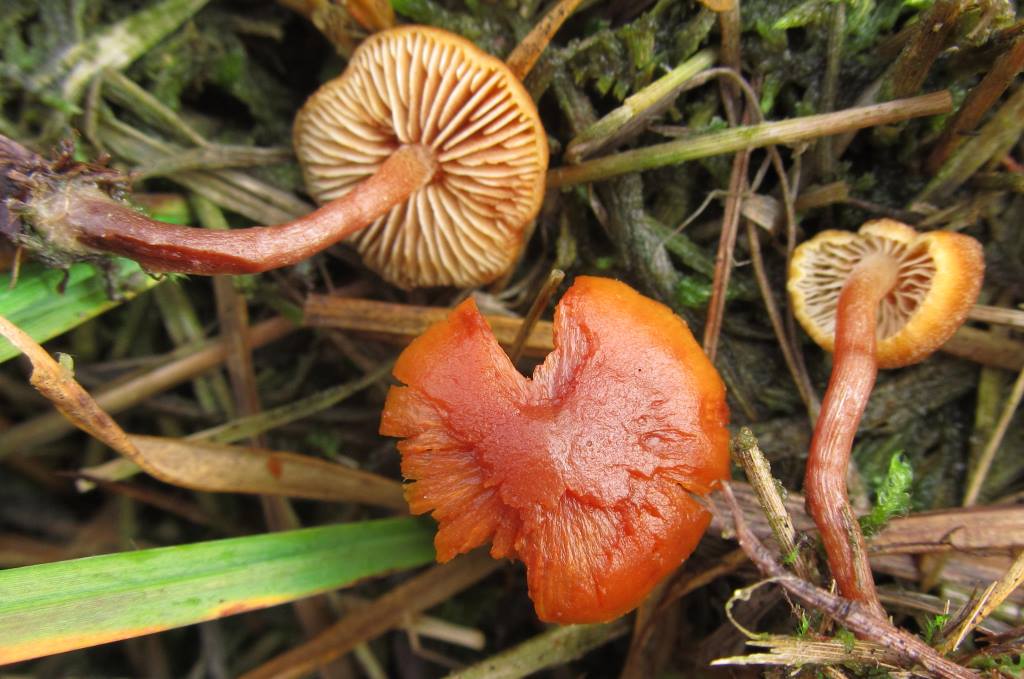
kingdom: Fungi
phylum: Basidiomycota
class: Agaricomycetes
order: Agaricales
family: Hymenogastraceae
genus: Gymnopilus
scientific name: Gymnopilus fulgens
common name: tørve-flammehat
